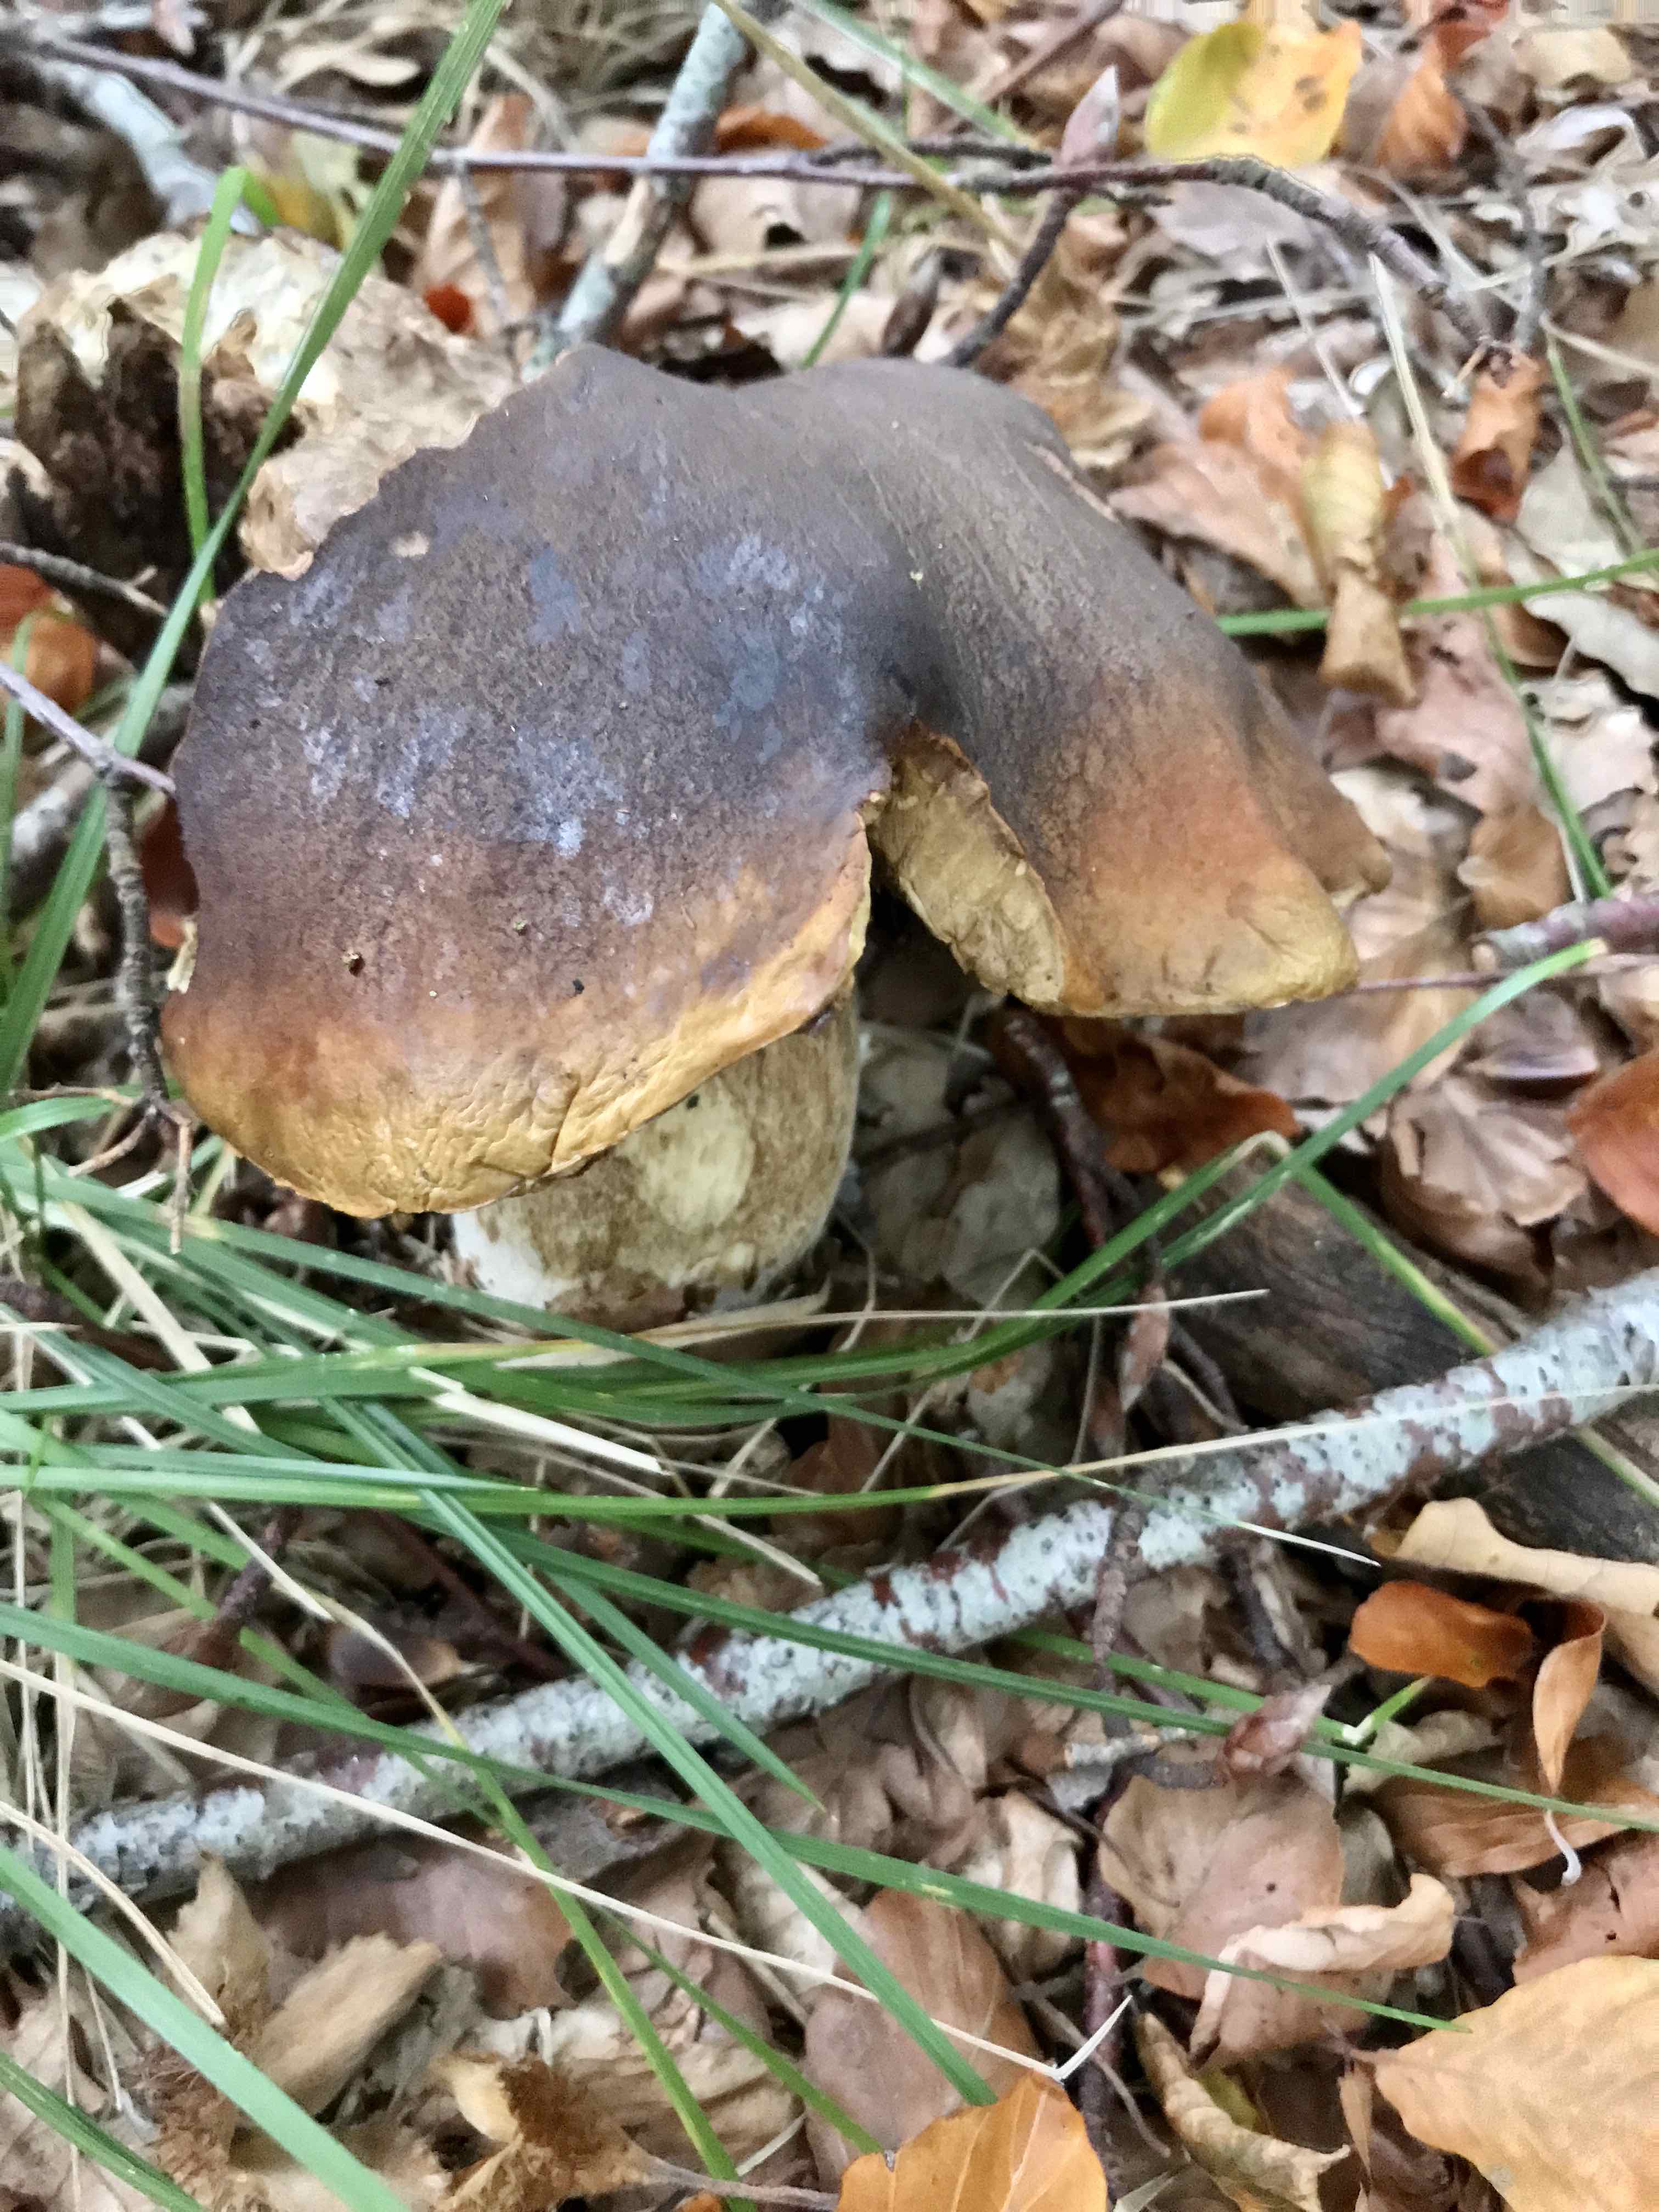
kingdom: Fungi
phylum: Basidiomycota
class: Agaricomycetes
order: Boletales
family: Boletaceae
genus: Boletus
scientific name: Boletus edulis
